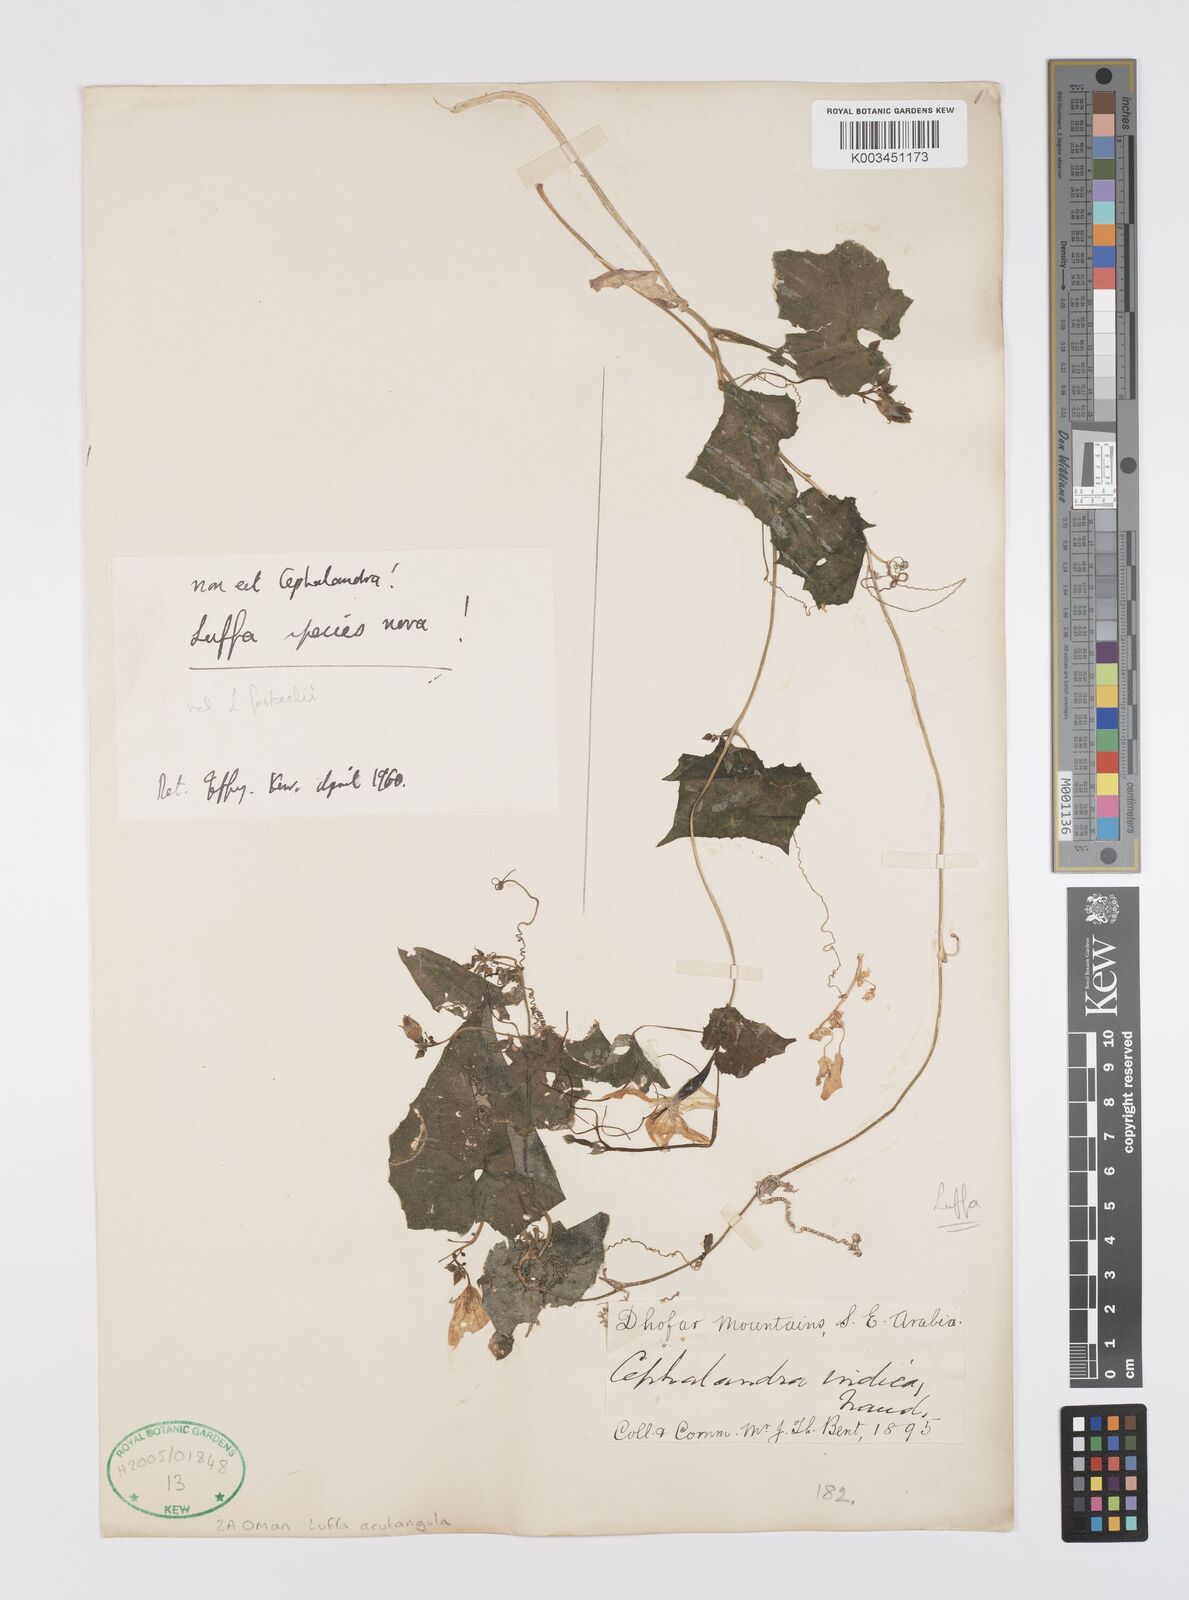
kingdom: Plantae
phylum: Tracheophyta
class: Magnoliopsida
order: Cucurbitales
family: Cucurbitaceae
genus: Luffa
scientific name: Luffa acutangula
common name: Sinkwa towelsponge
